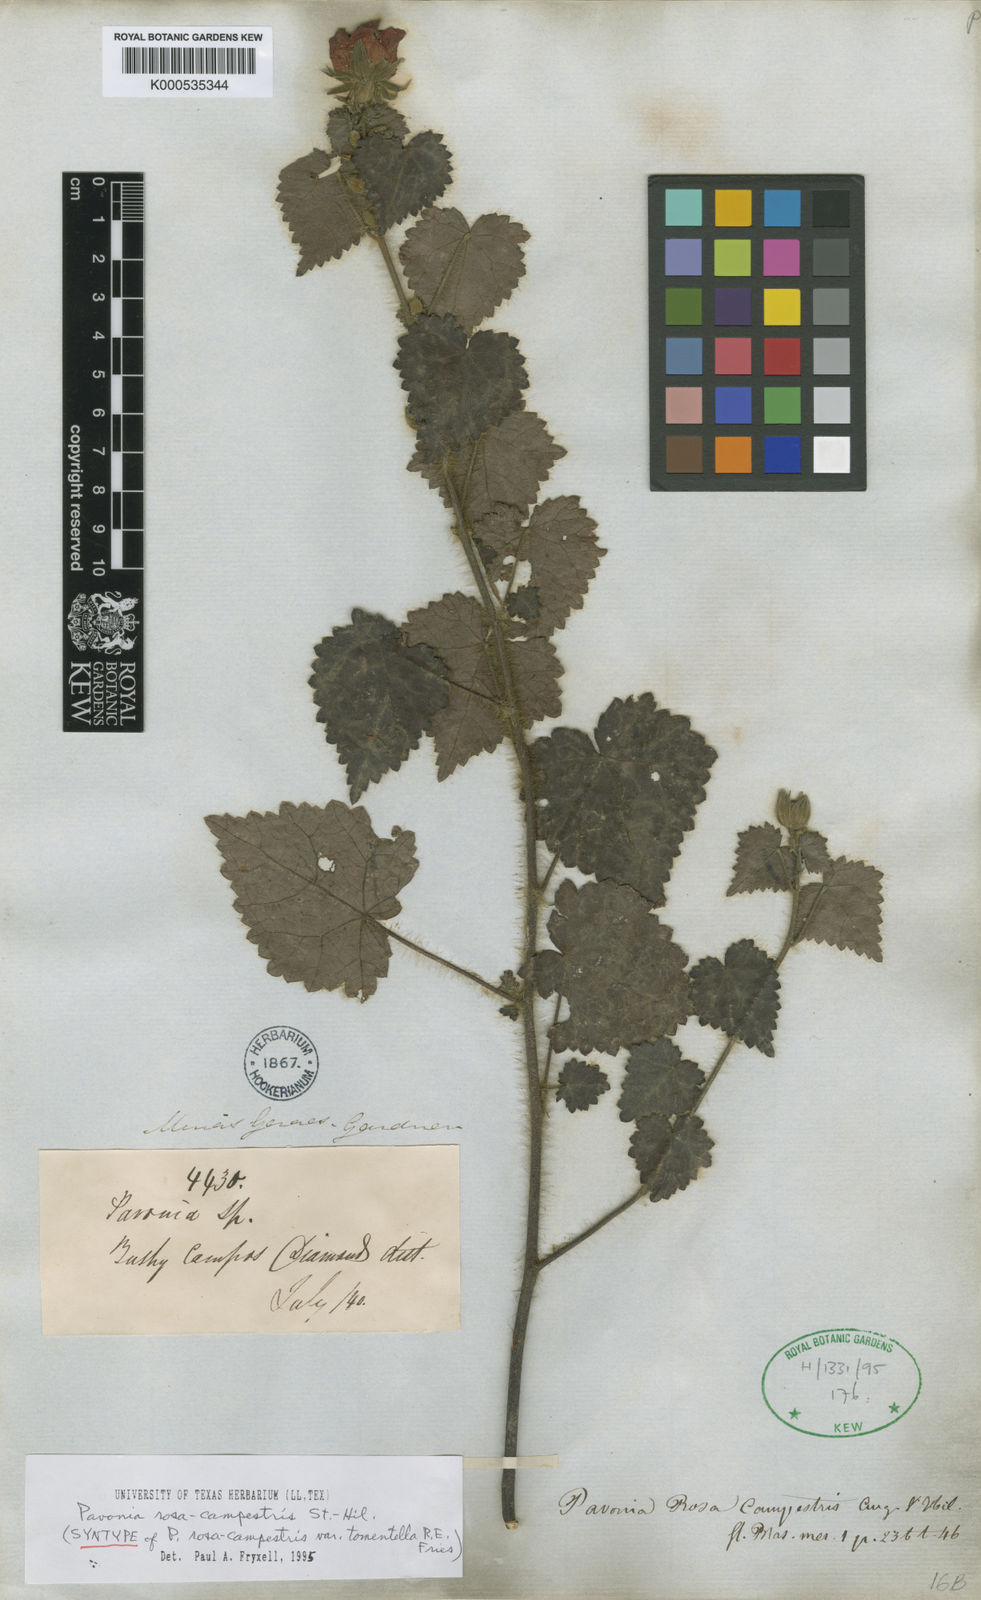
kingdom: Plantae
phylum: Tracheophyta
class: Magnoliopsida
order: Malvales
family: Malvaceae
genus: Pavonia
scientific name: Pavonia rosa-campestris
